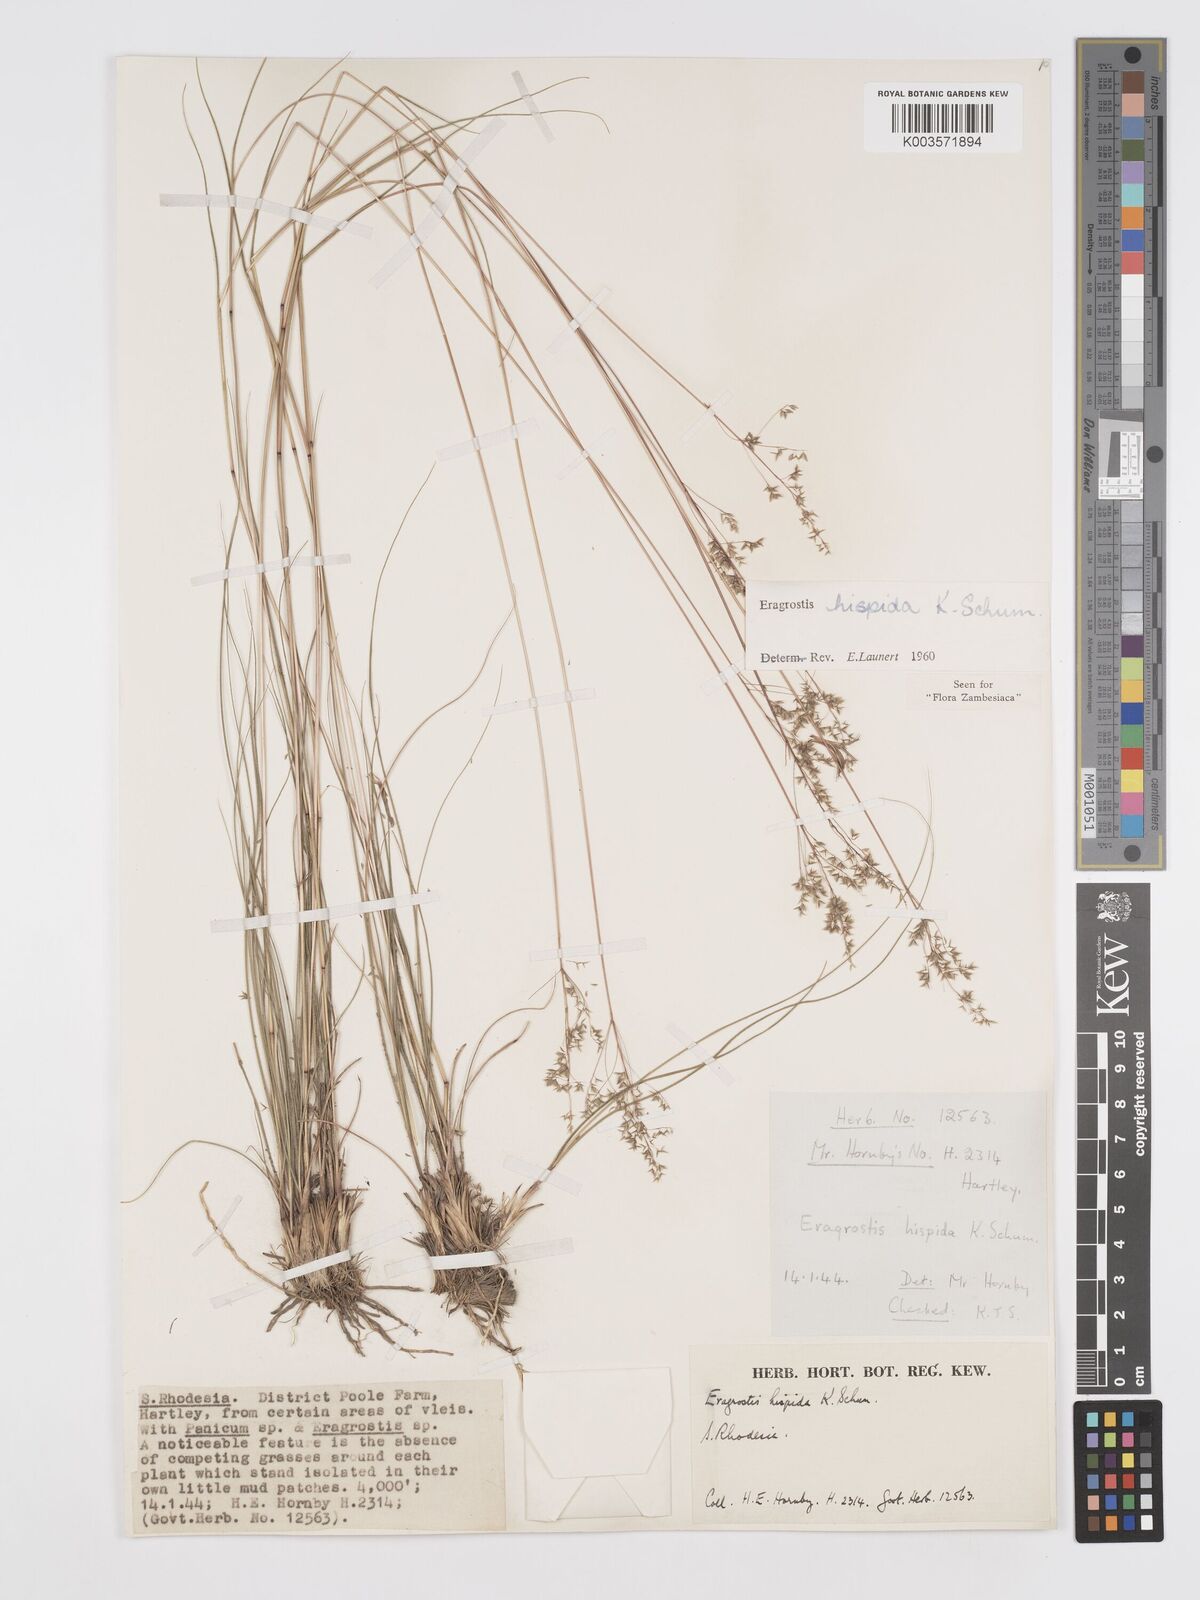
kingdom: Plantae
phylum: Tracheophyta
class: Liliopsida
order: Poales
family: Poaceae
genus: Eragrostis
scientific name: Eragrostis hispida
